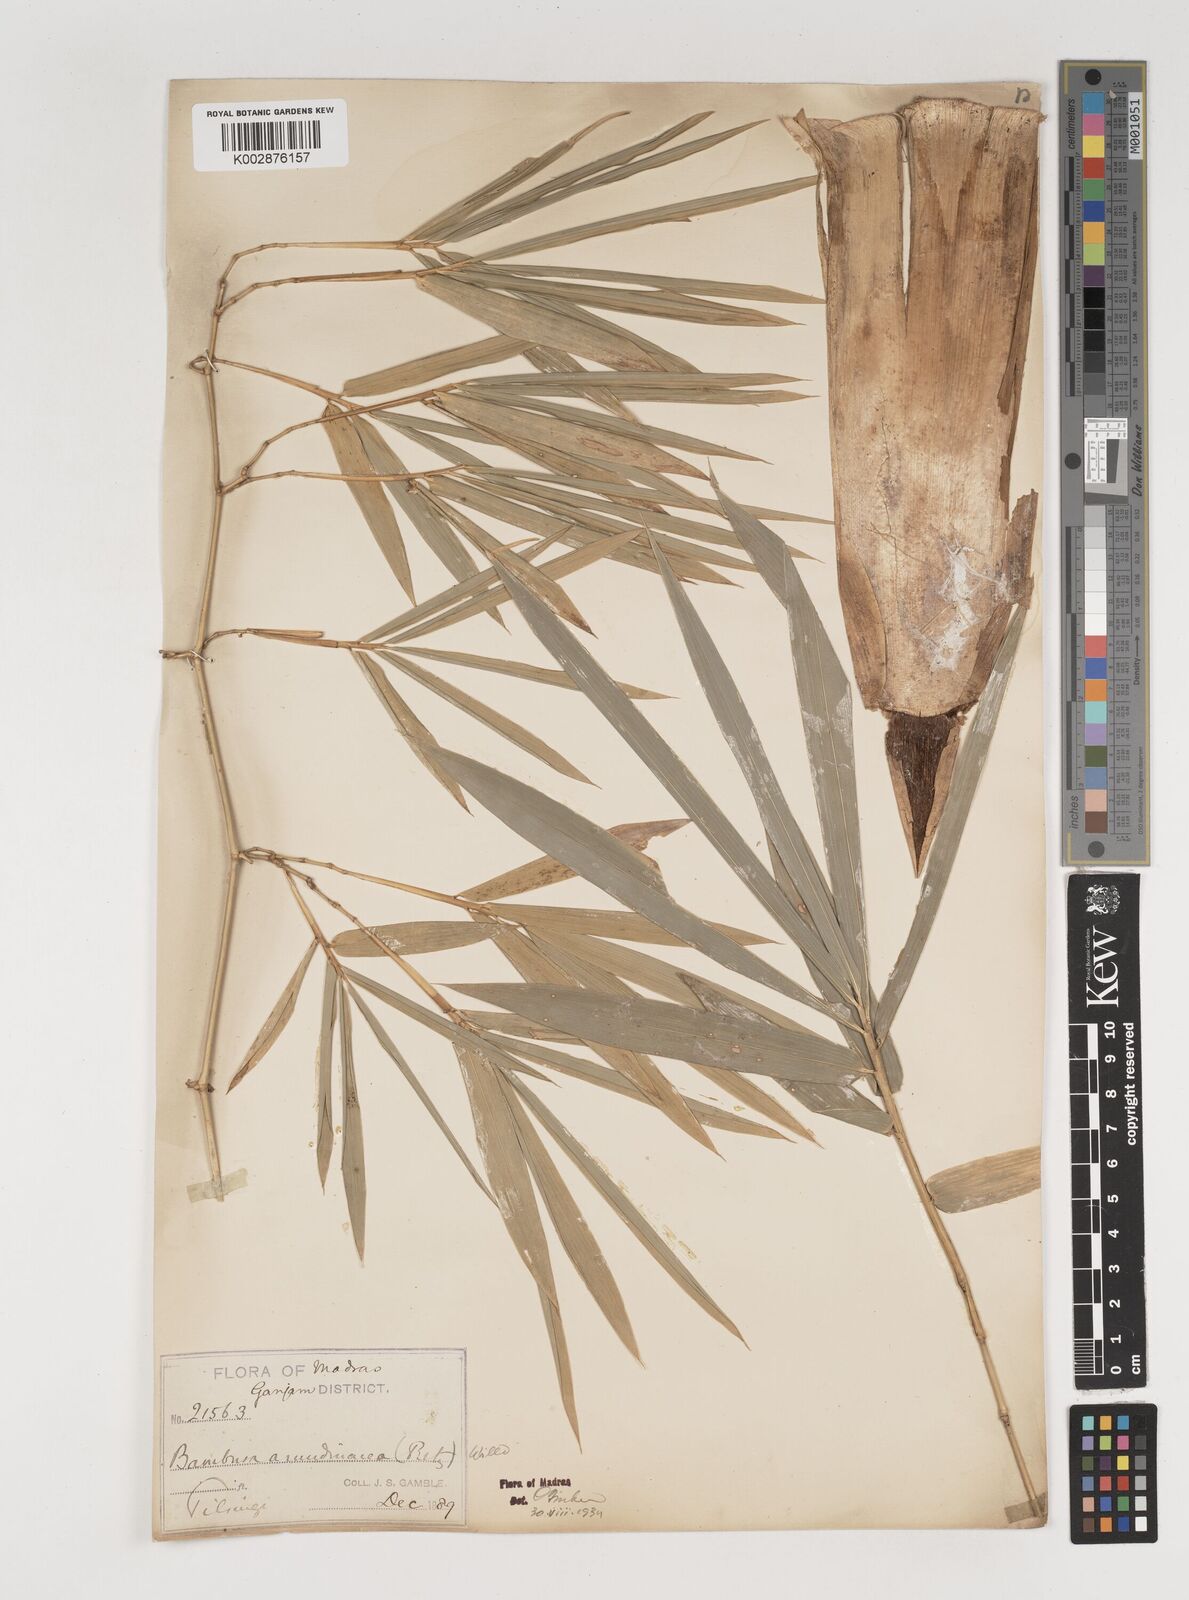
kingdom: Plantae
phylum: Tracheophyta
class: Liliopsida
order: Poales
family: Poaceae
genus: Bambusa
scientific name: Bambusa bambos
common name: Indian thorny bamboo
